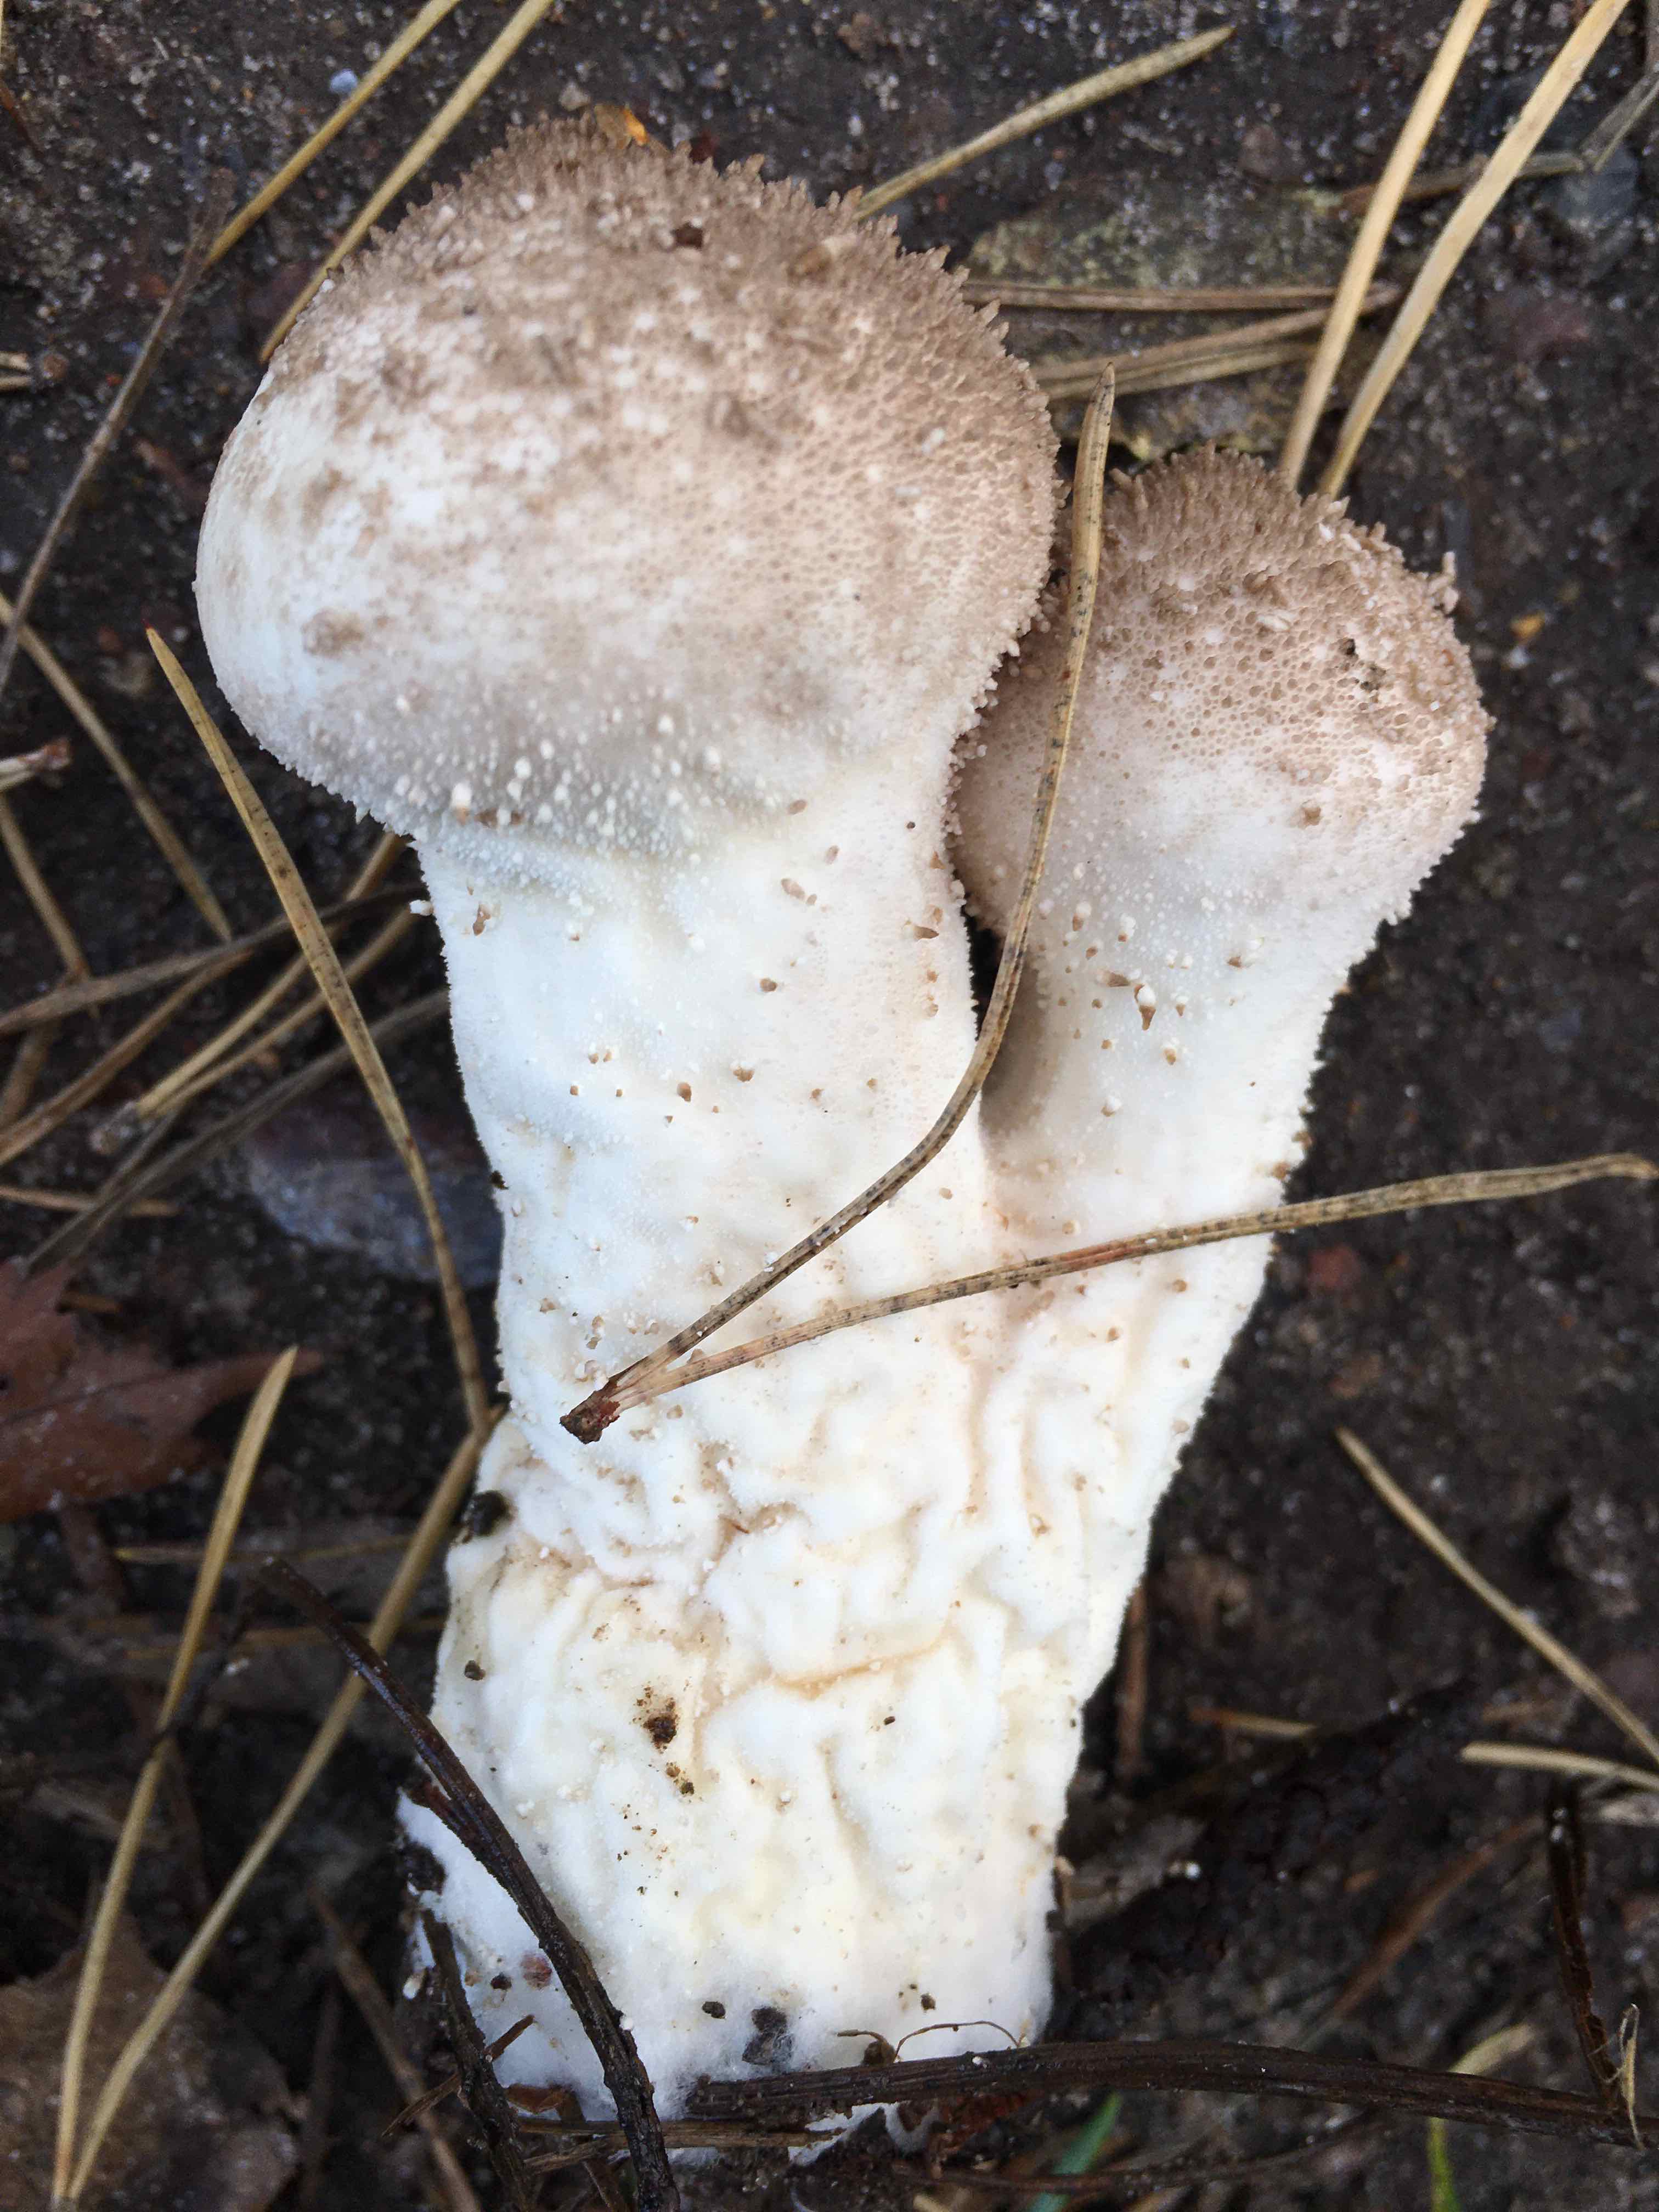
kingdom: Fungi
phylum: Basidiomycota
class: Agaricomycetes
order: Agaricales
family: Lycoperdaceae
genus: Lycoperdon
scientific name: Lycoperdon perlatum
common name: krystal-støvbold
